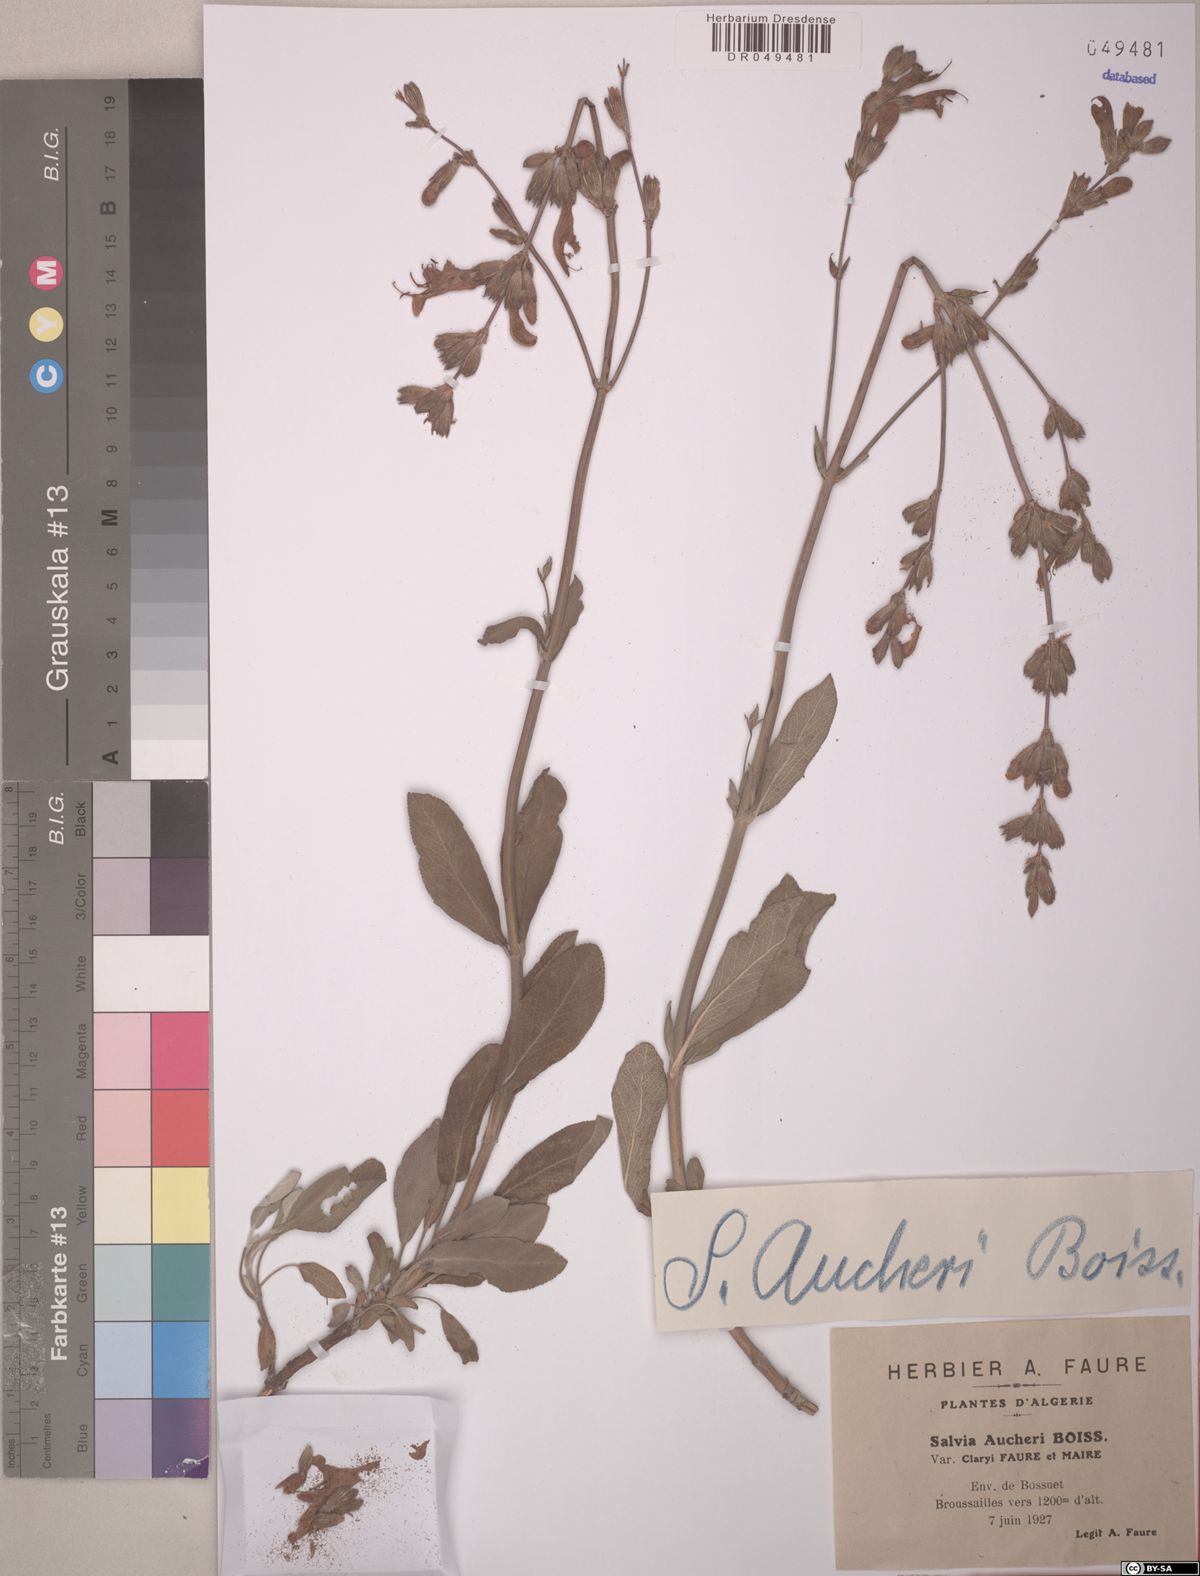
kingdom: Plantae
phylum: Tracheophyta
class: Magnoliopsida
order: Lamiales
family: Lamiaceae
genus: Salvia
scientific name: Salvia aucheri
